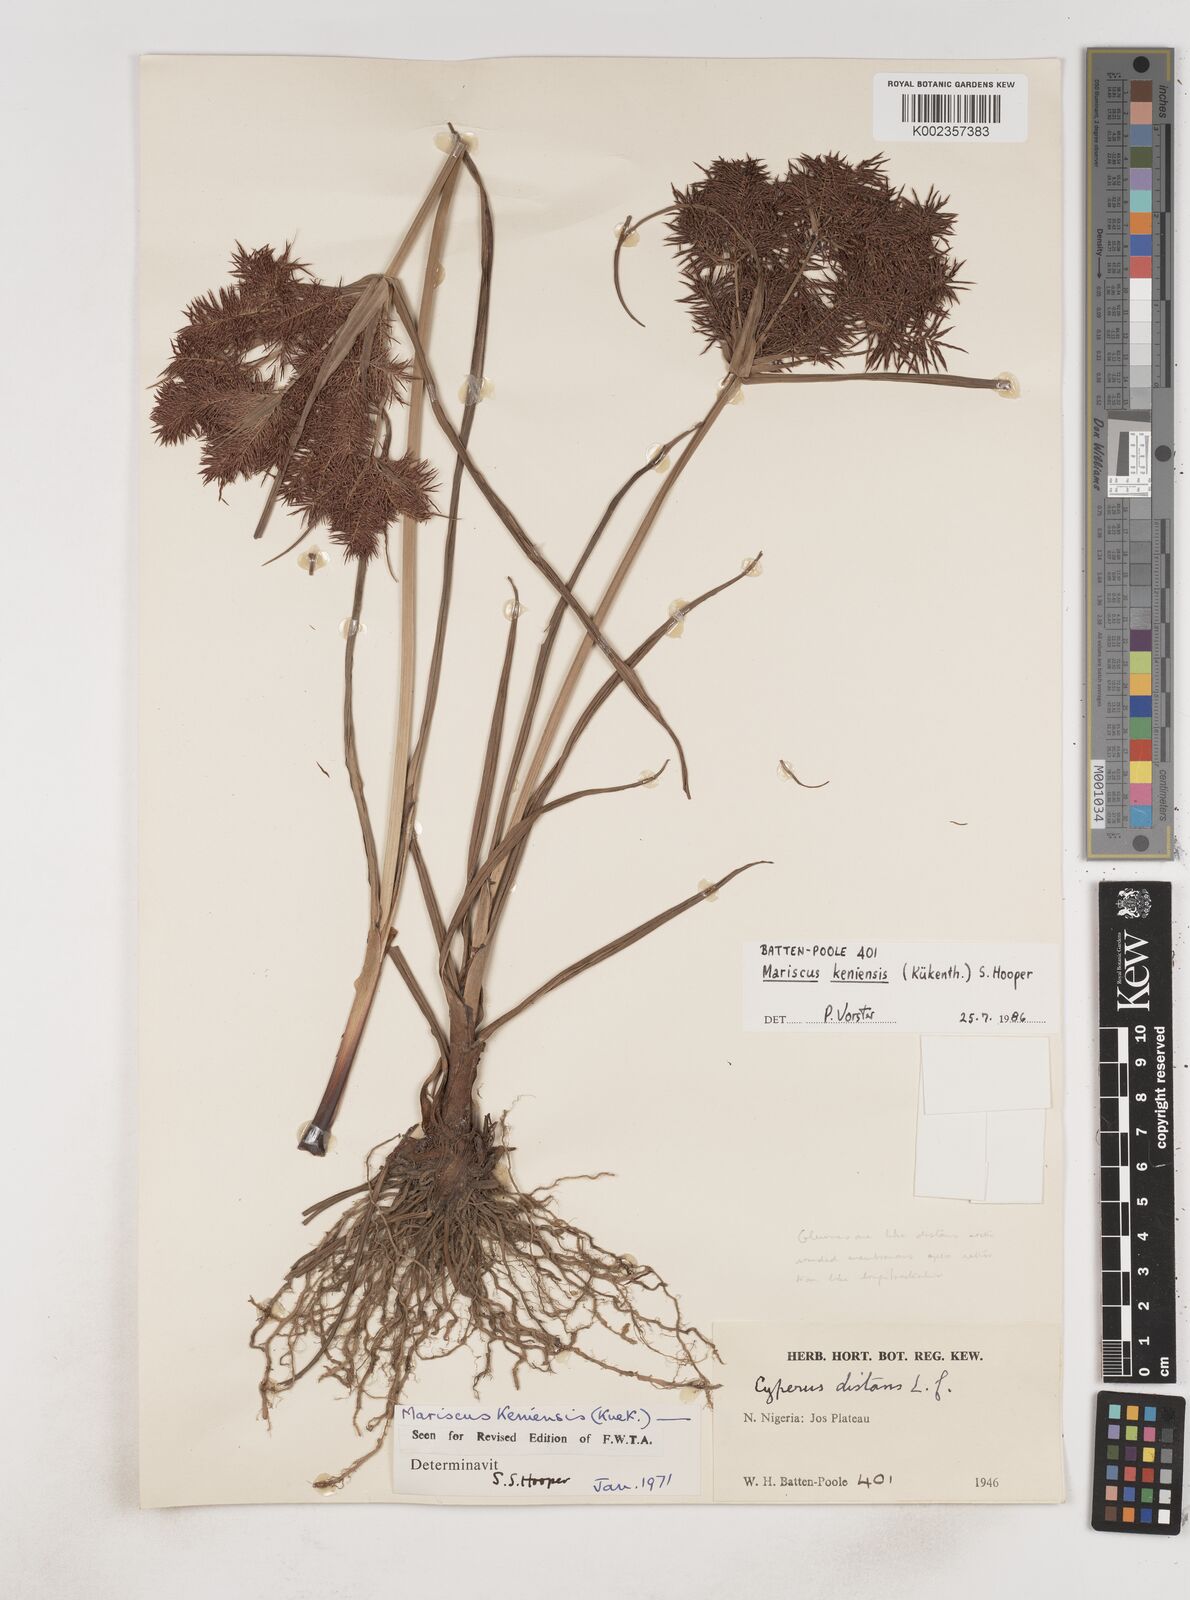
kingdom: Plantae
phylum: Tracheophyta
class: Liliopsida
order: Poales
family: Cyperaceae
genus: Cyperus
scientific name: Cyperus distans
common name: Slender cyperus
